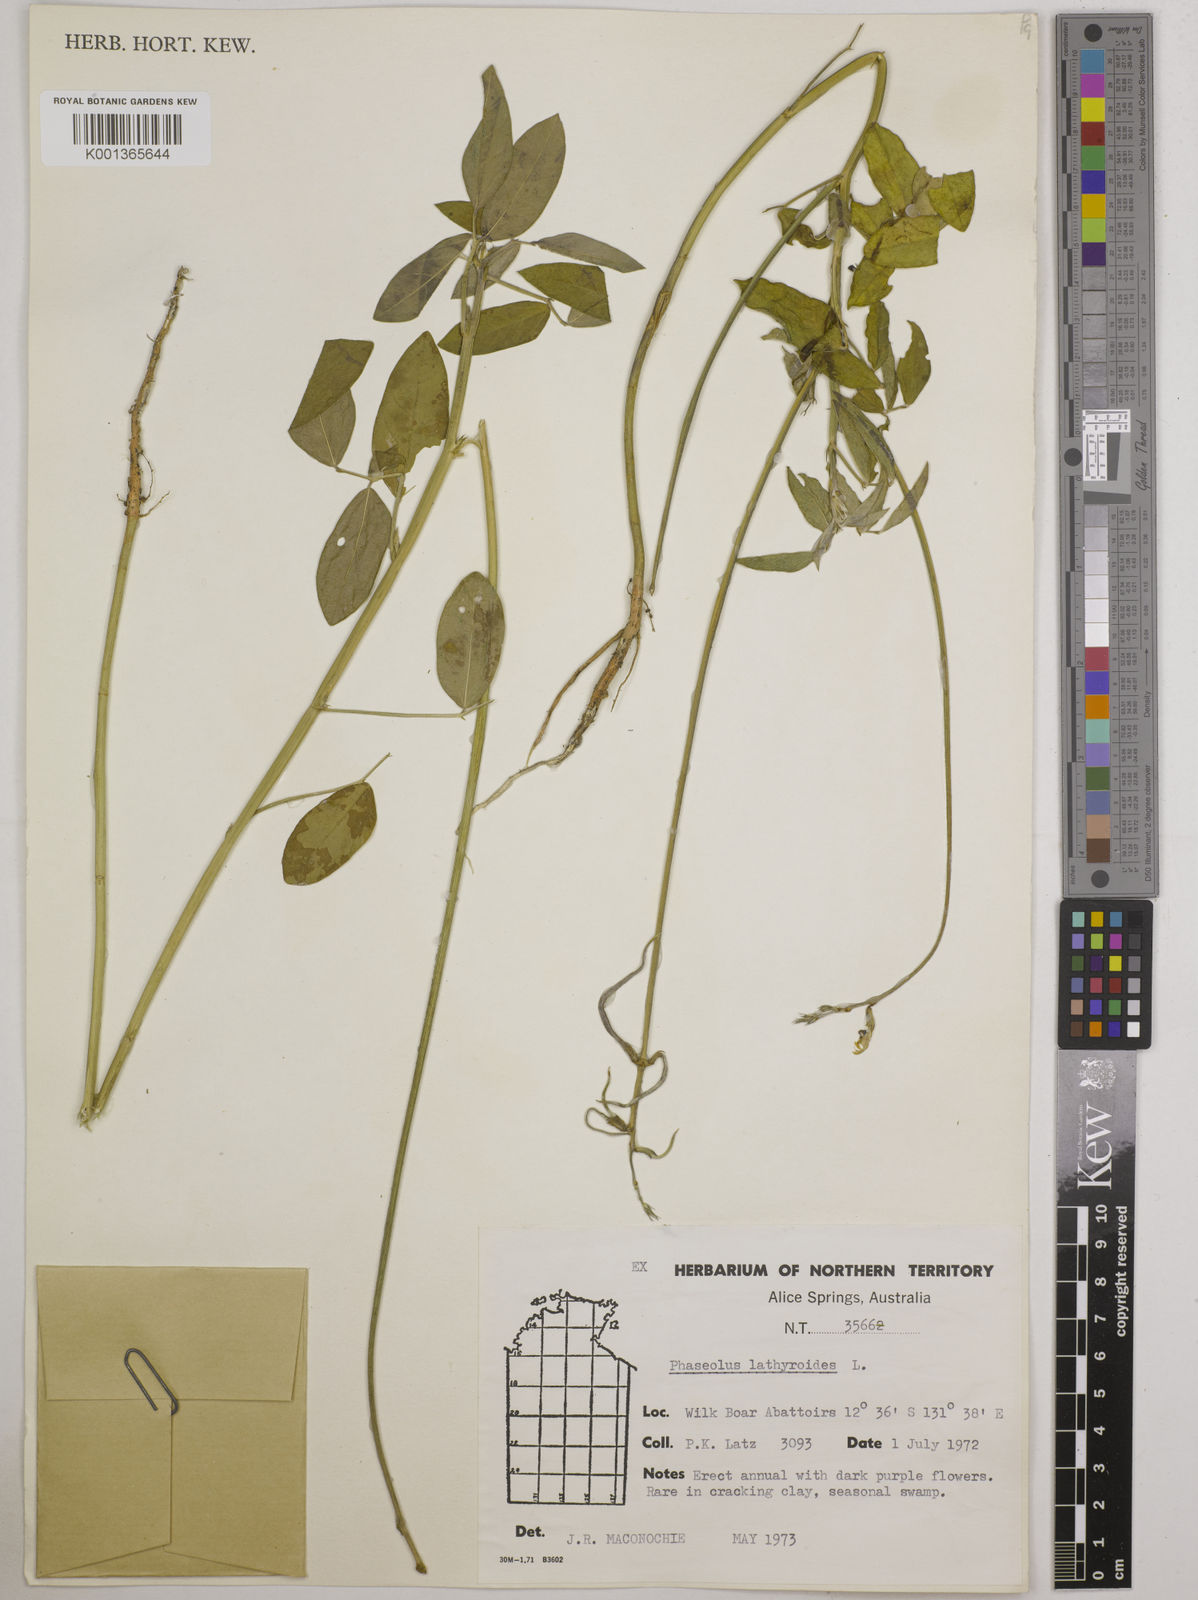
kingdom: Plantae
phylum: Tracheophyta
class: Magnoliopsida
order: Fabales
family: Fabaceae
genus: Macroptilium
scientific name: Macroptilium lathyroides
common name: Wild bushbean
